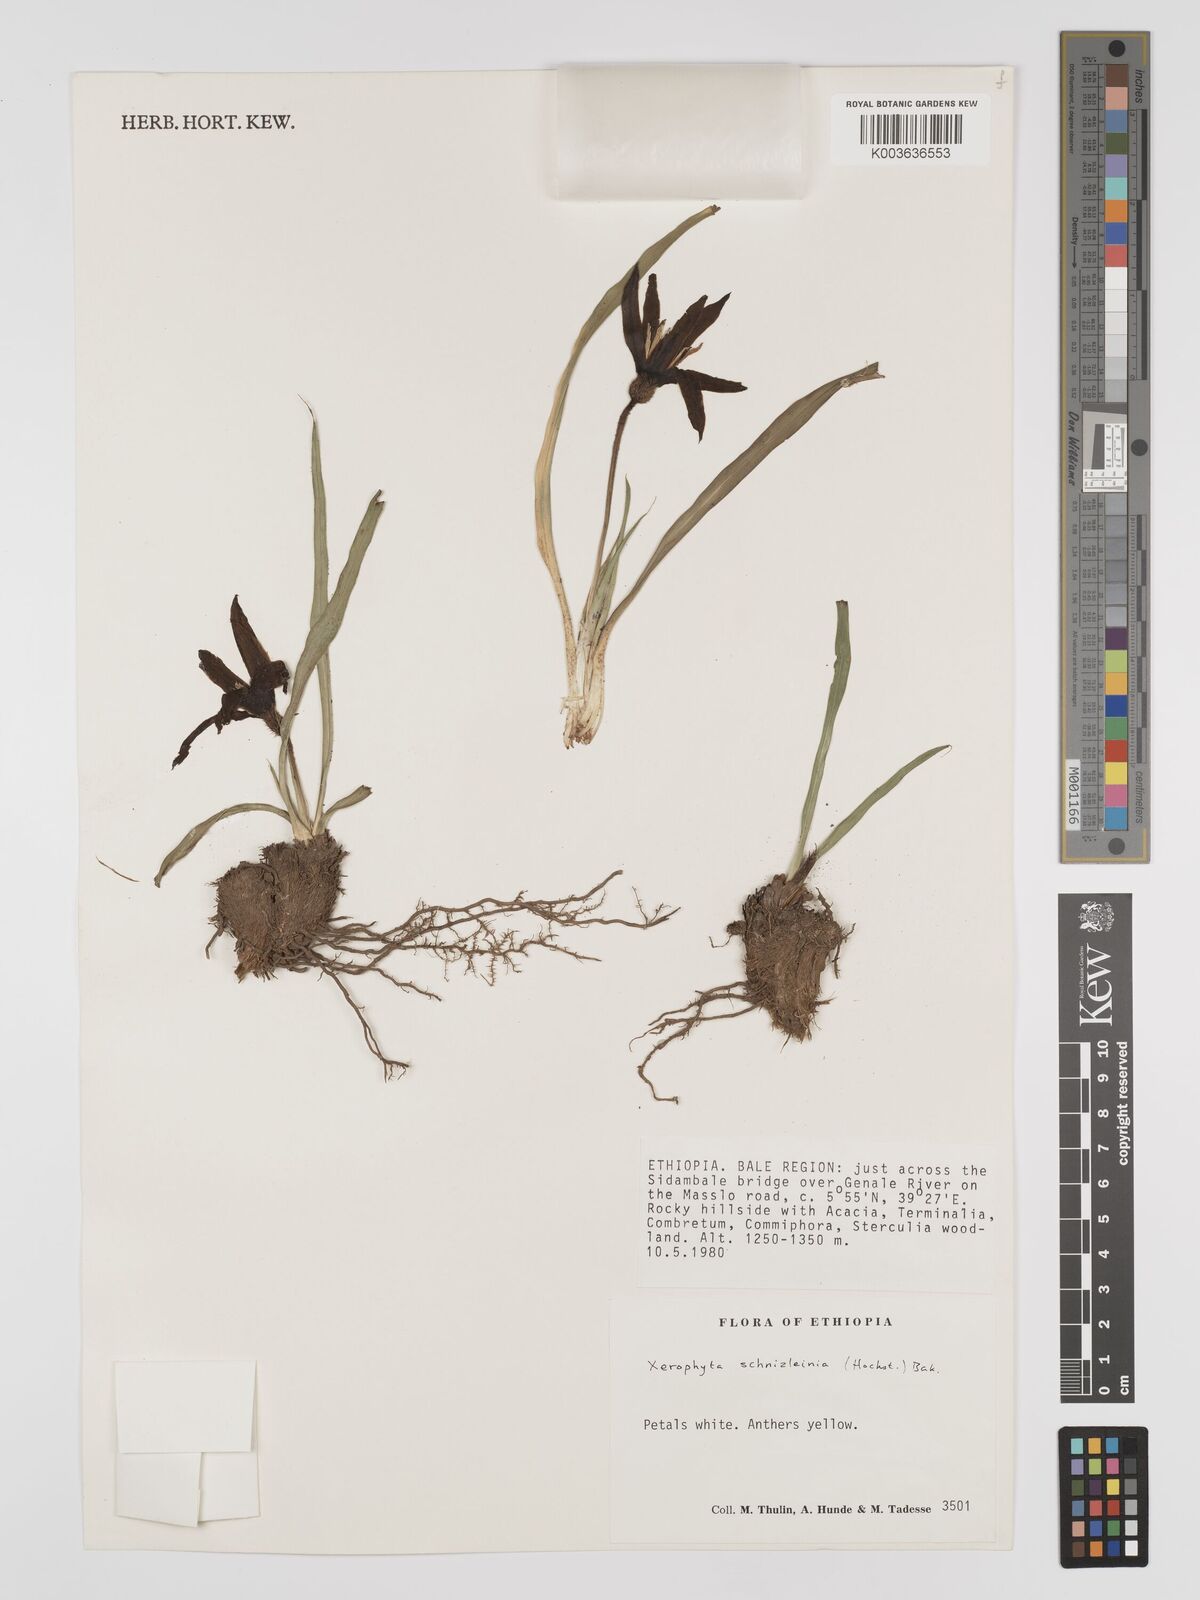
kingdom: Plantae
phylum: Tracheophyta
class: Liliopsida
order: Pandanales
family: Velloziaceae
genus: Xerophyta
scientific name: Xerophyta schnizleinia
